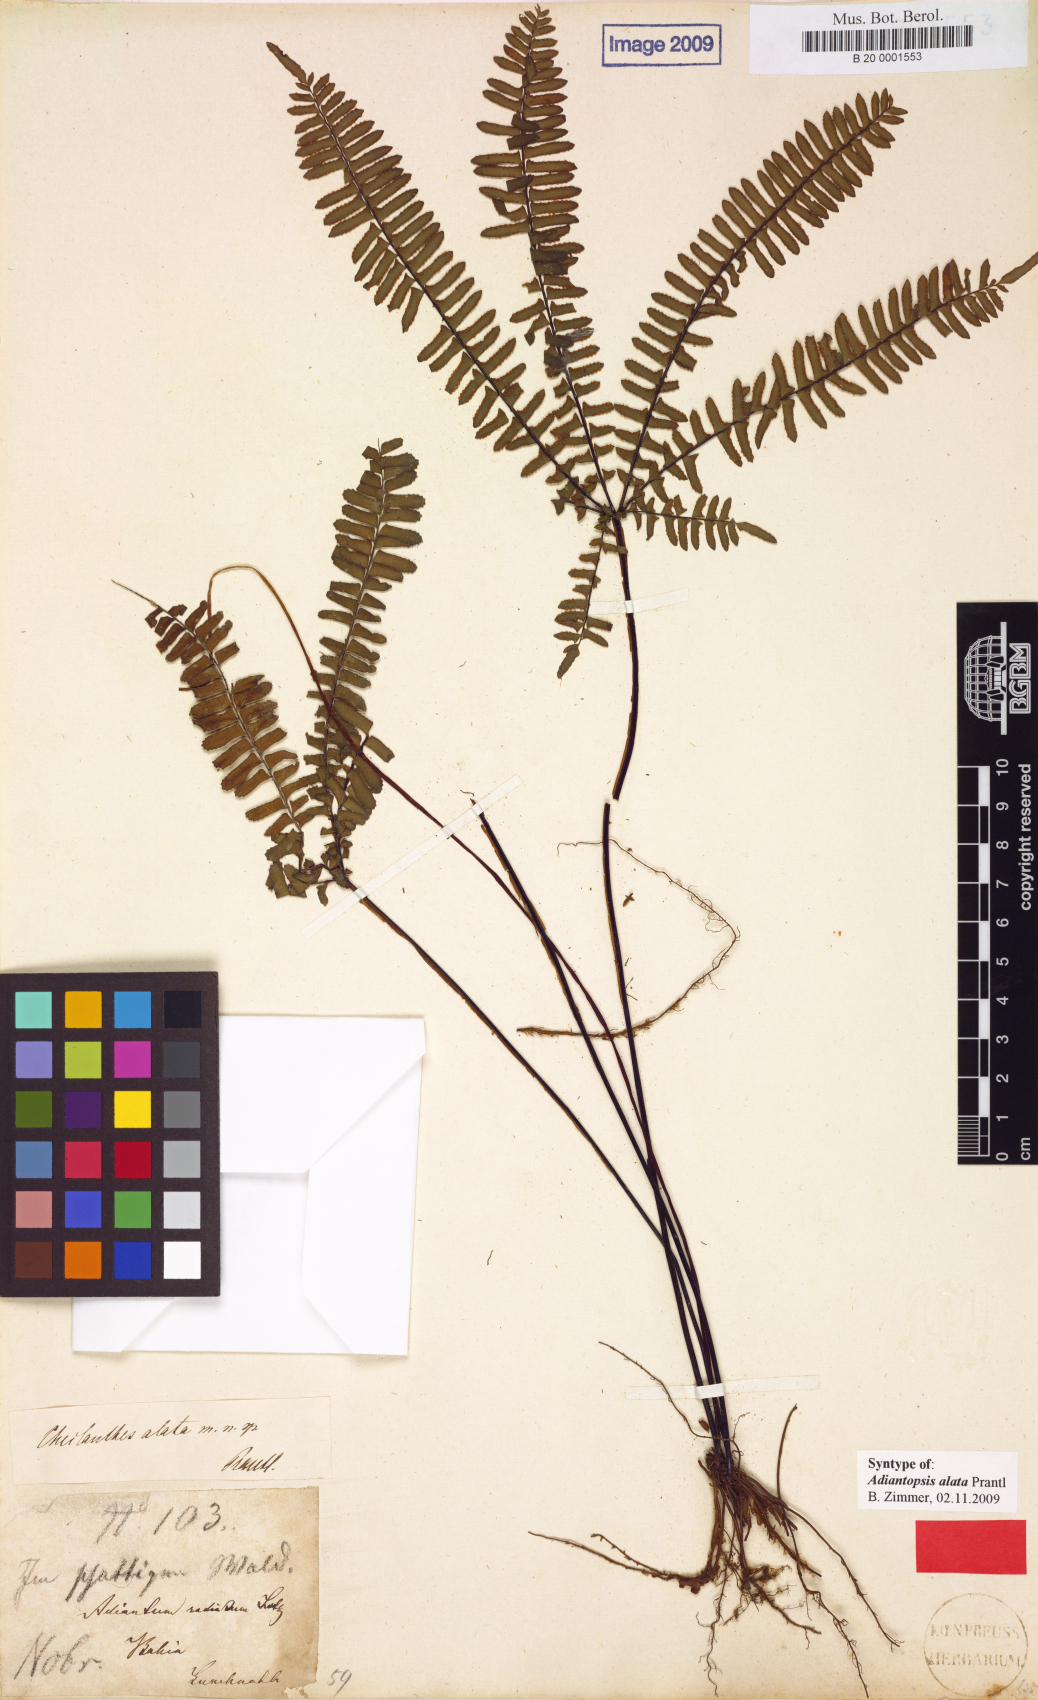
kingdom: Plantae
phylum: Tracheophyta
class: Polypodiopsida
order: Polypodiales
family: Pteridaceae
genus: Adiantopsis
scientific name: Adiantopsis alata
